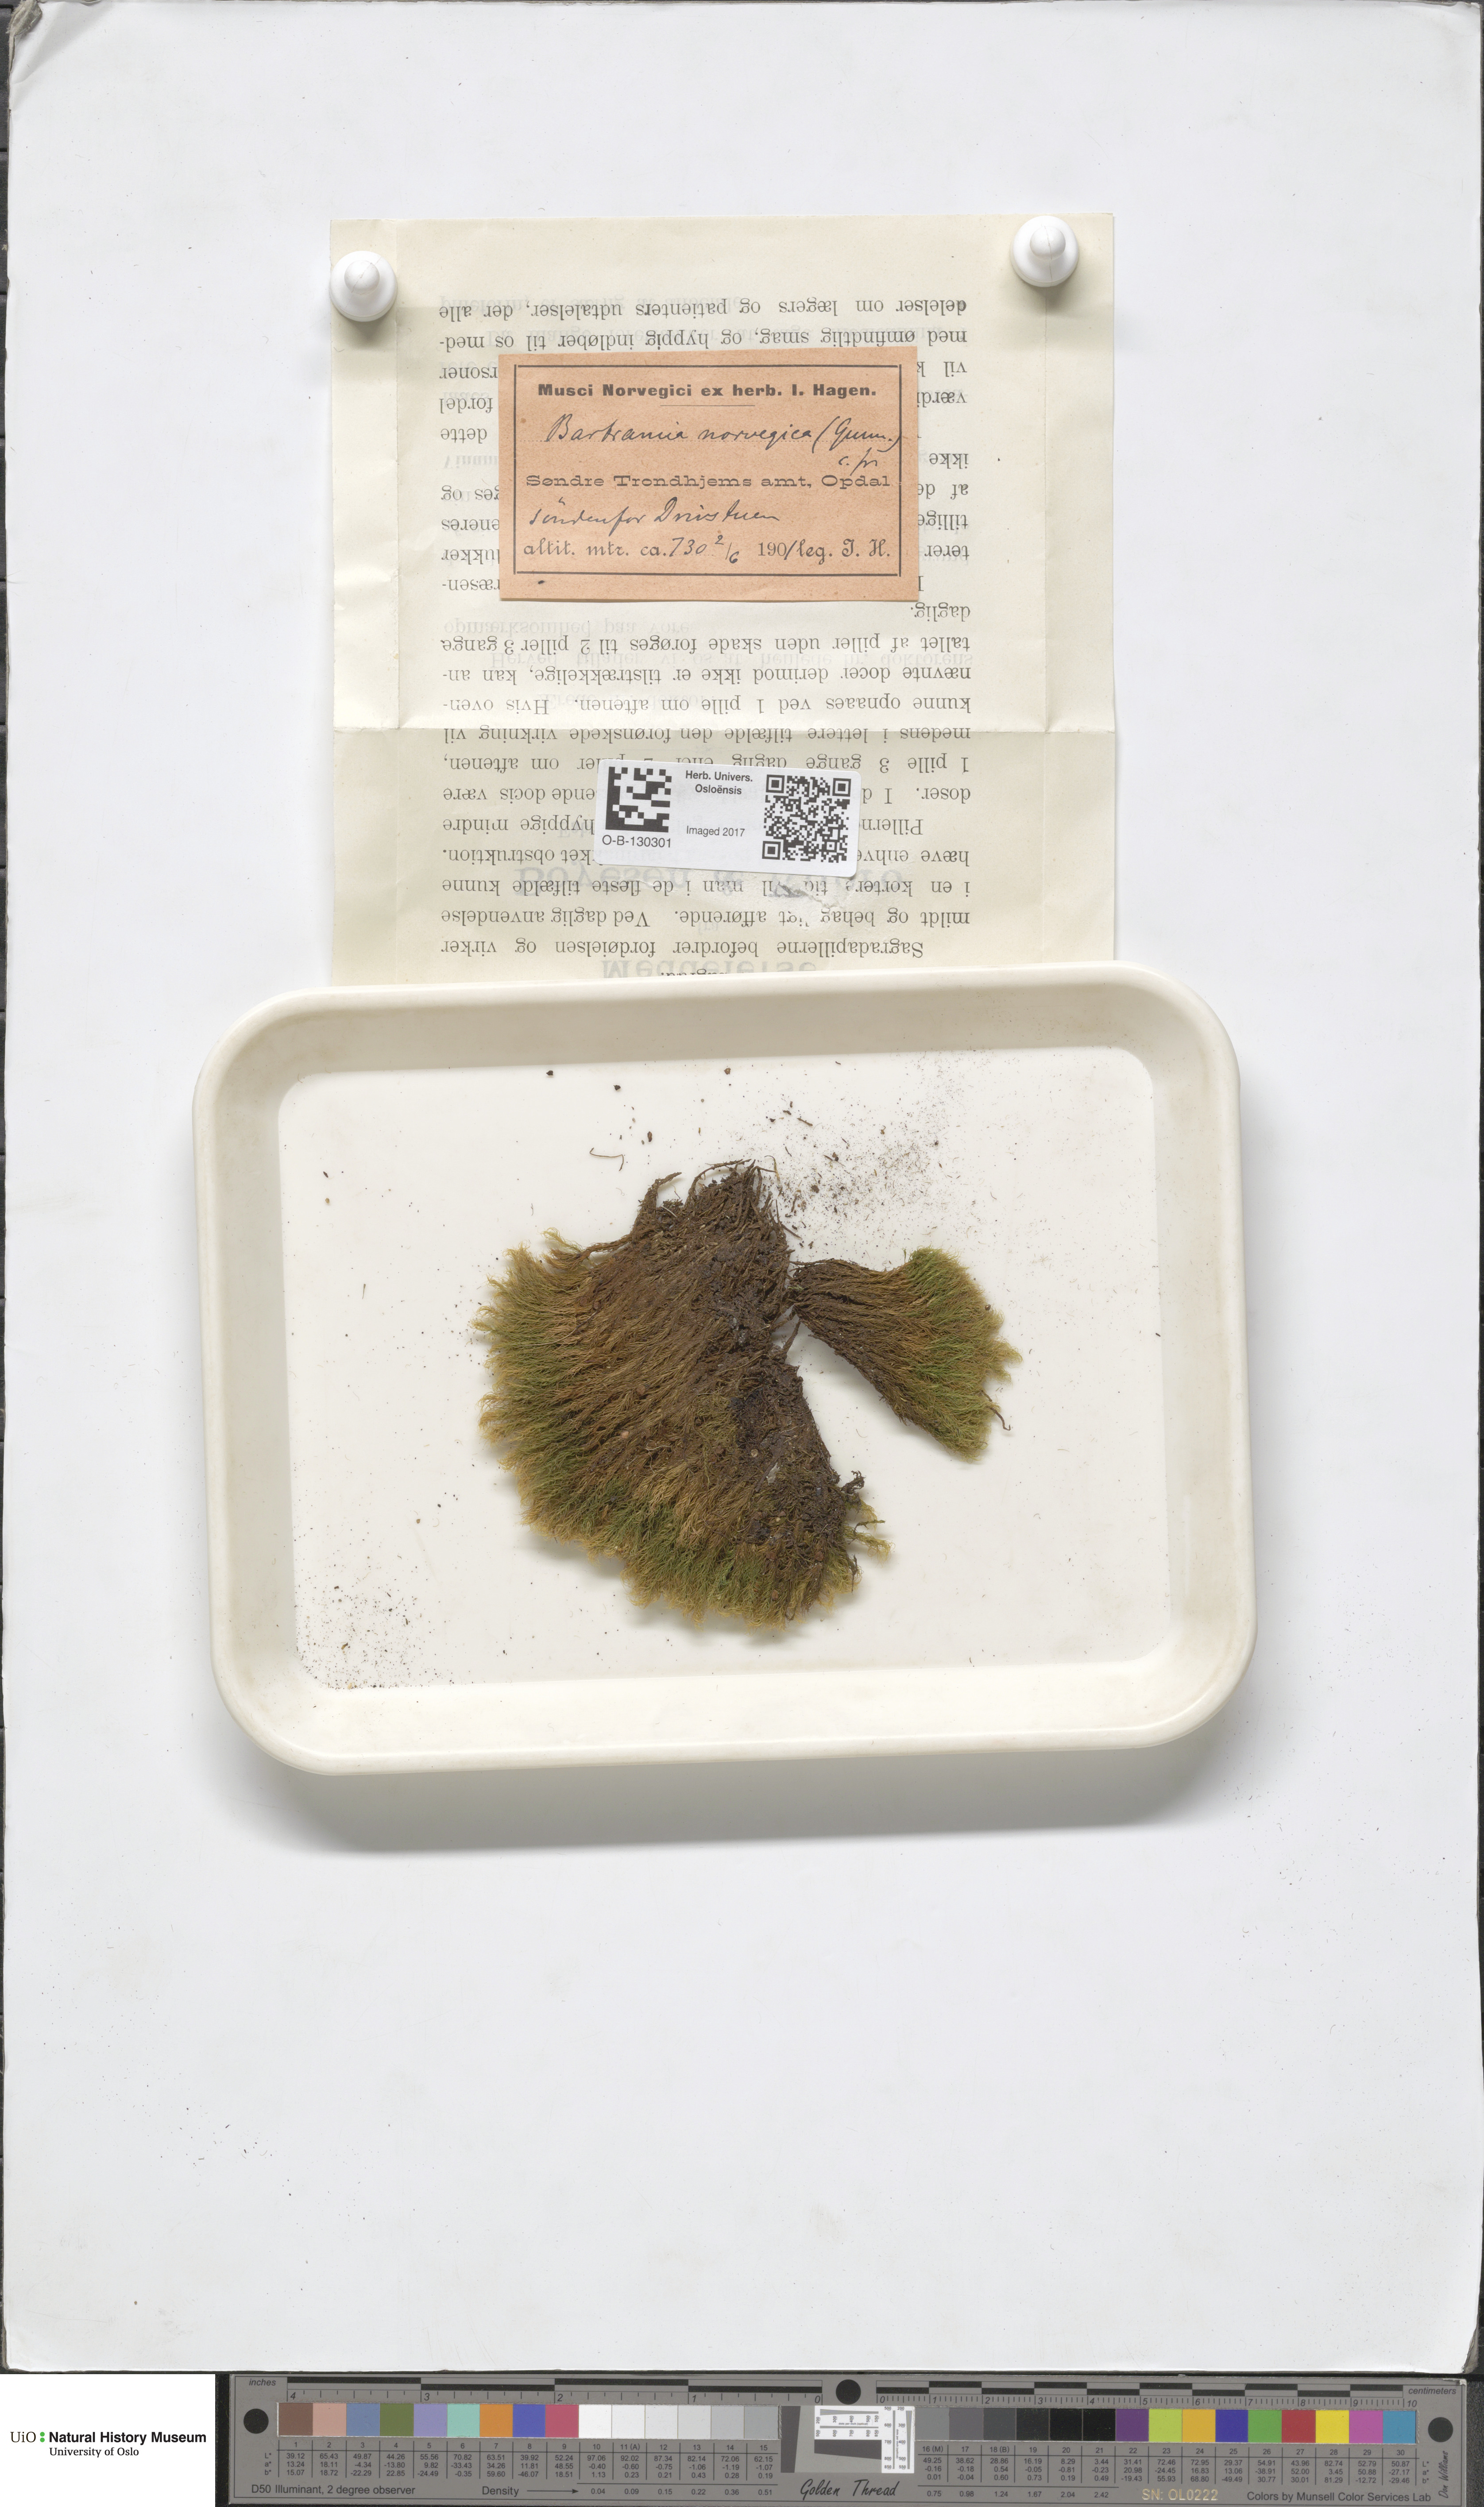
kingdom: Plantae
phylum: Bryophyta
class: Bryopsida
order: Bartramiales
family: Bartramiaceae
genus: Bartramia
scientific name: Bartramia halleriana
